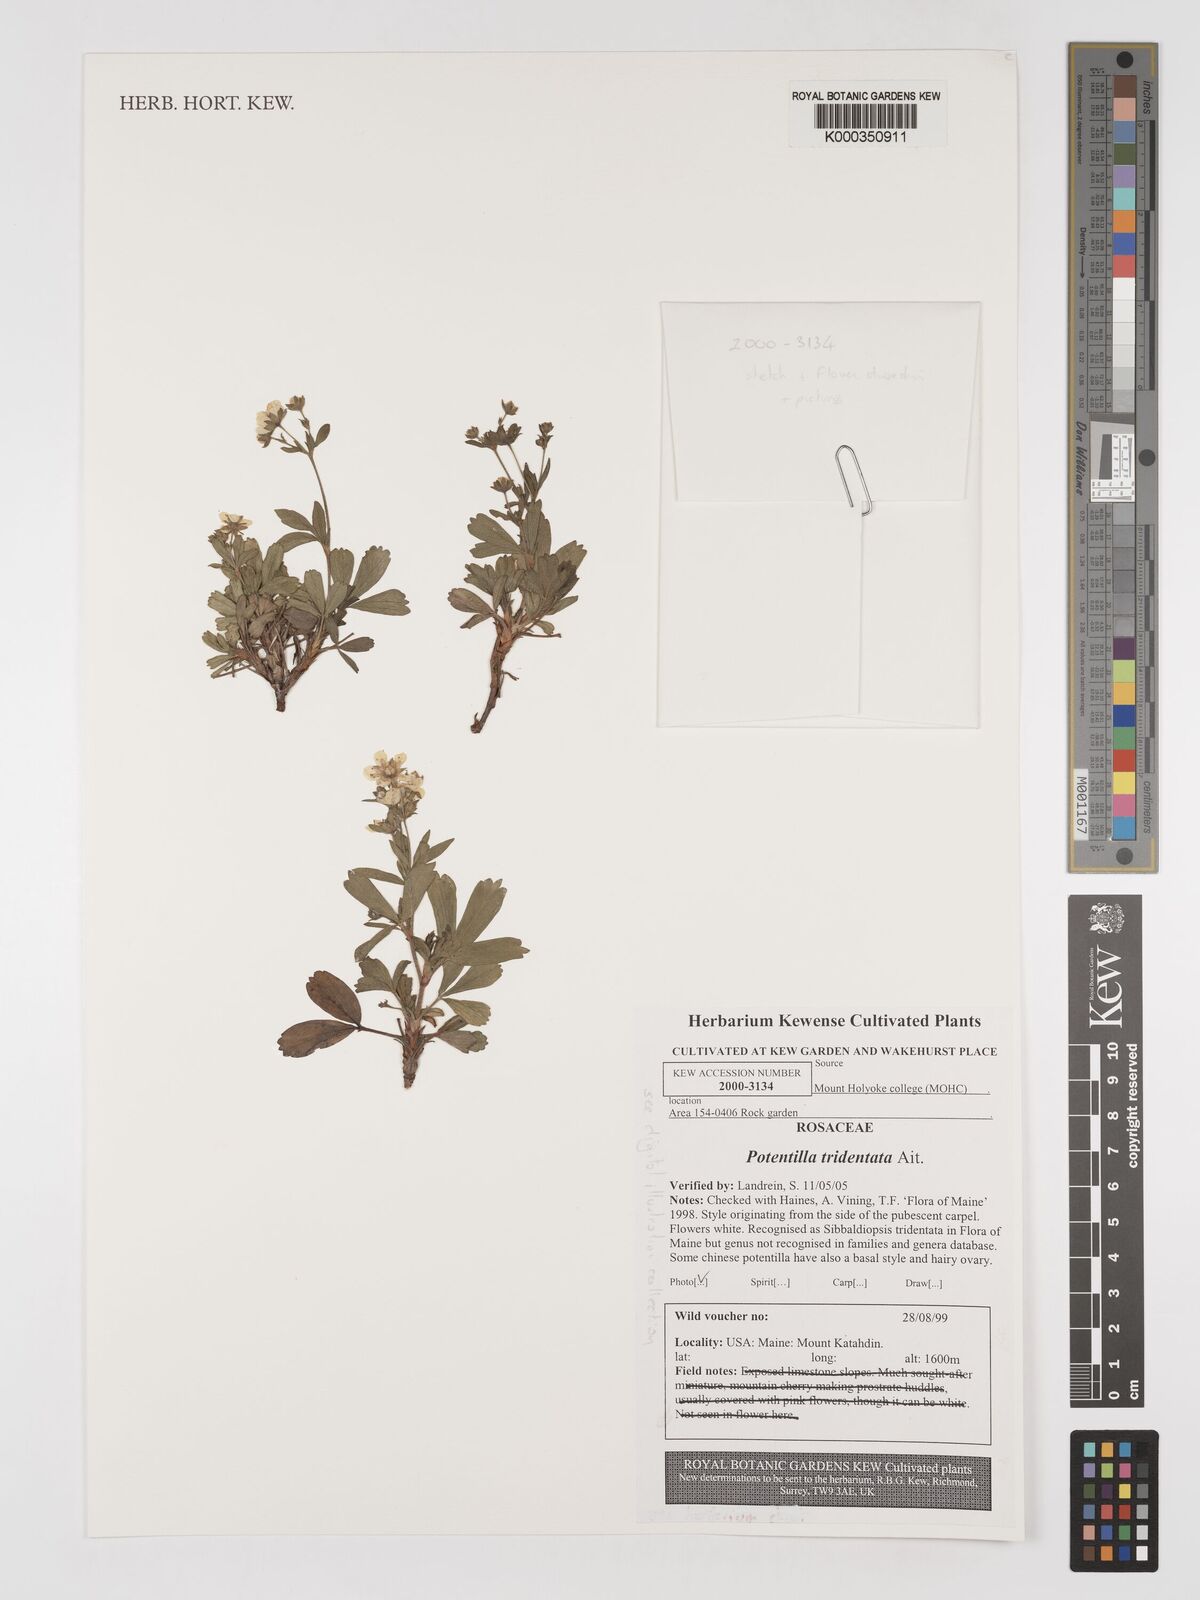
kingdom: Plantae
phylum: Tracheophyta
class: Magnoliopsida
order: Rosales
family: Rosaceae
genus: Sibbaldia
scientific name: Sibbaldia tridentata
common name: Three-toothed cinquefoil
